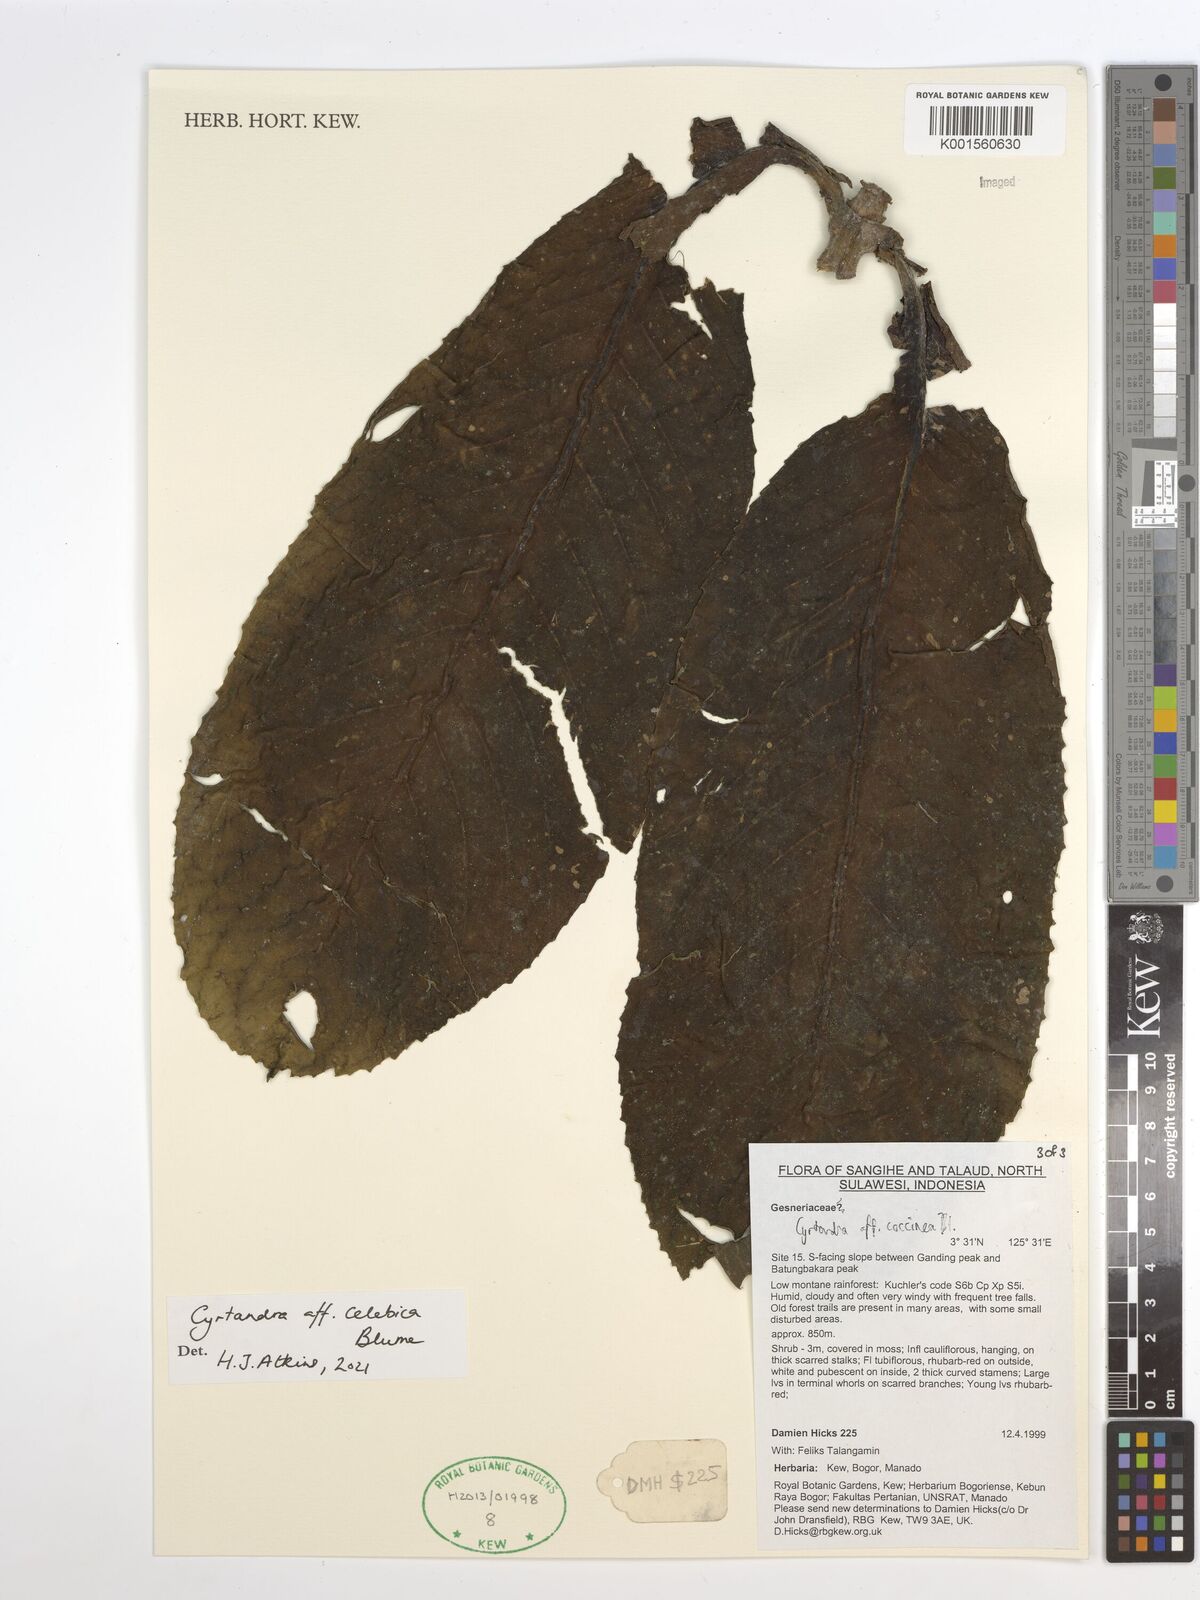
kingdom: Plantae
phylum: Tracheophyta
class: Magnoliopsida
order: Lamiales
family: Gesneriaceae
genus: Cyrtandra
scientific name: Cyrtandra coccinea
